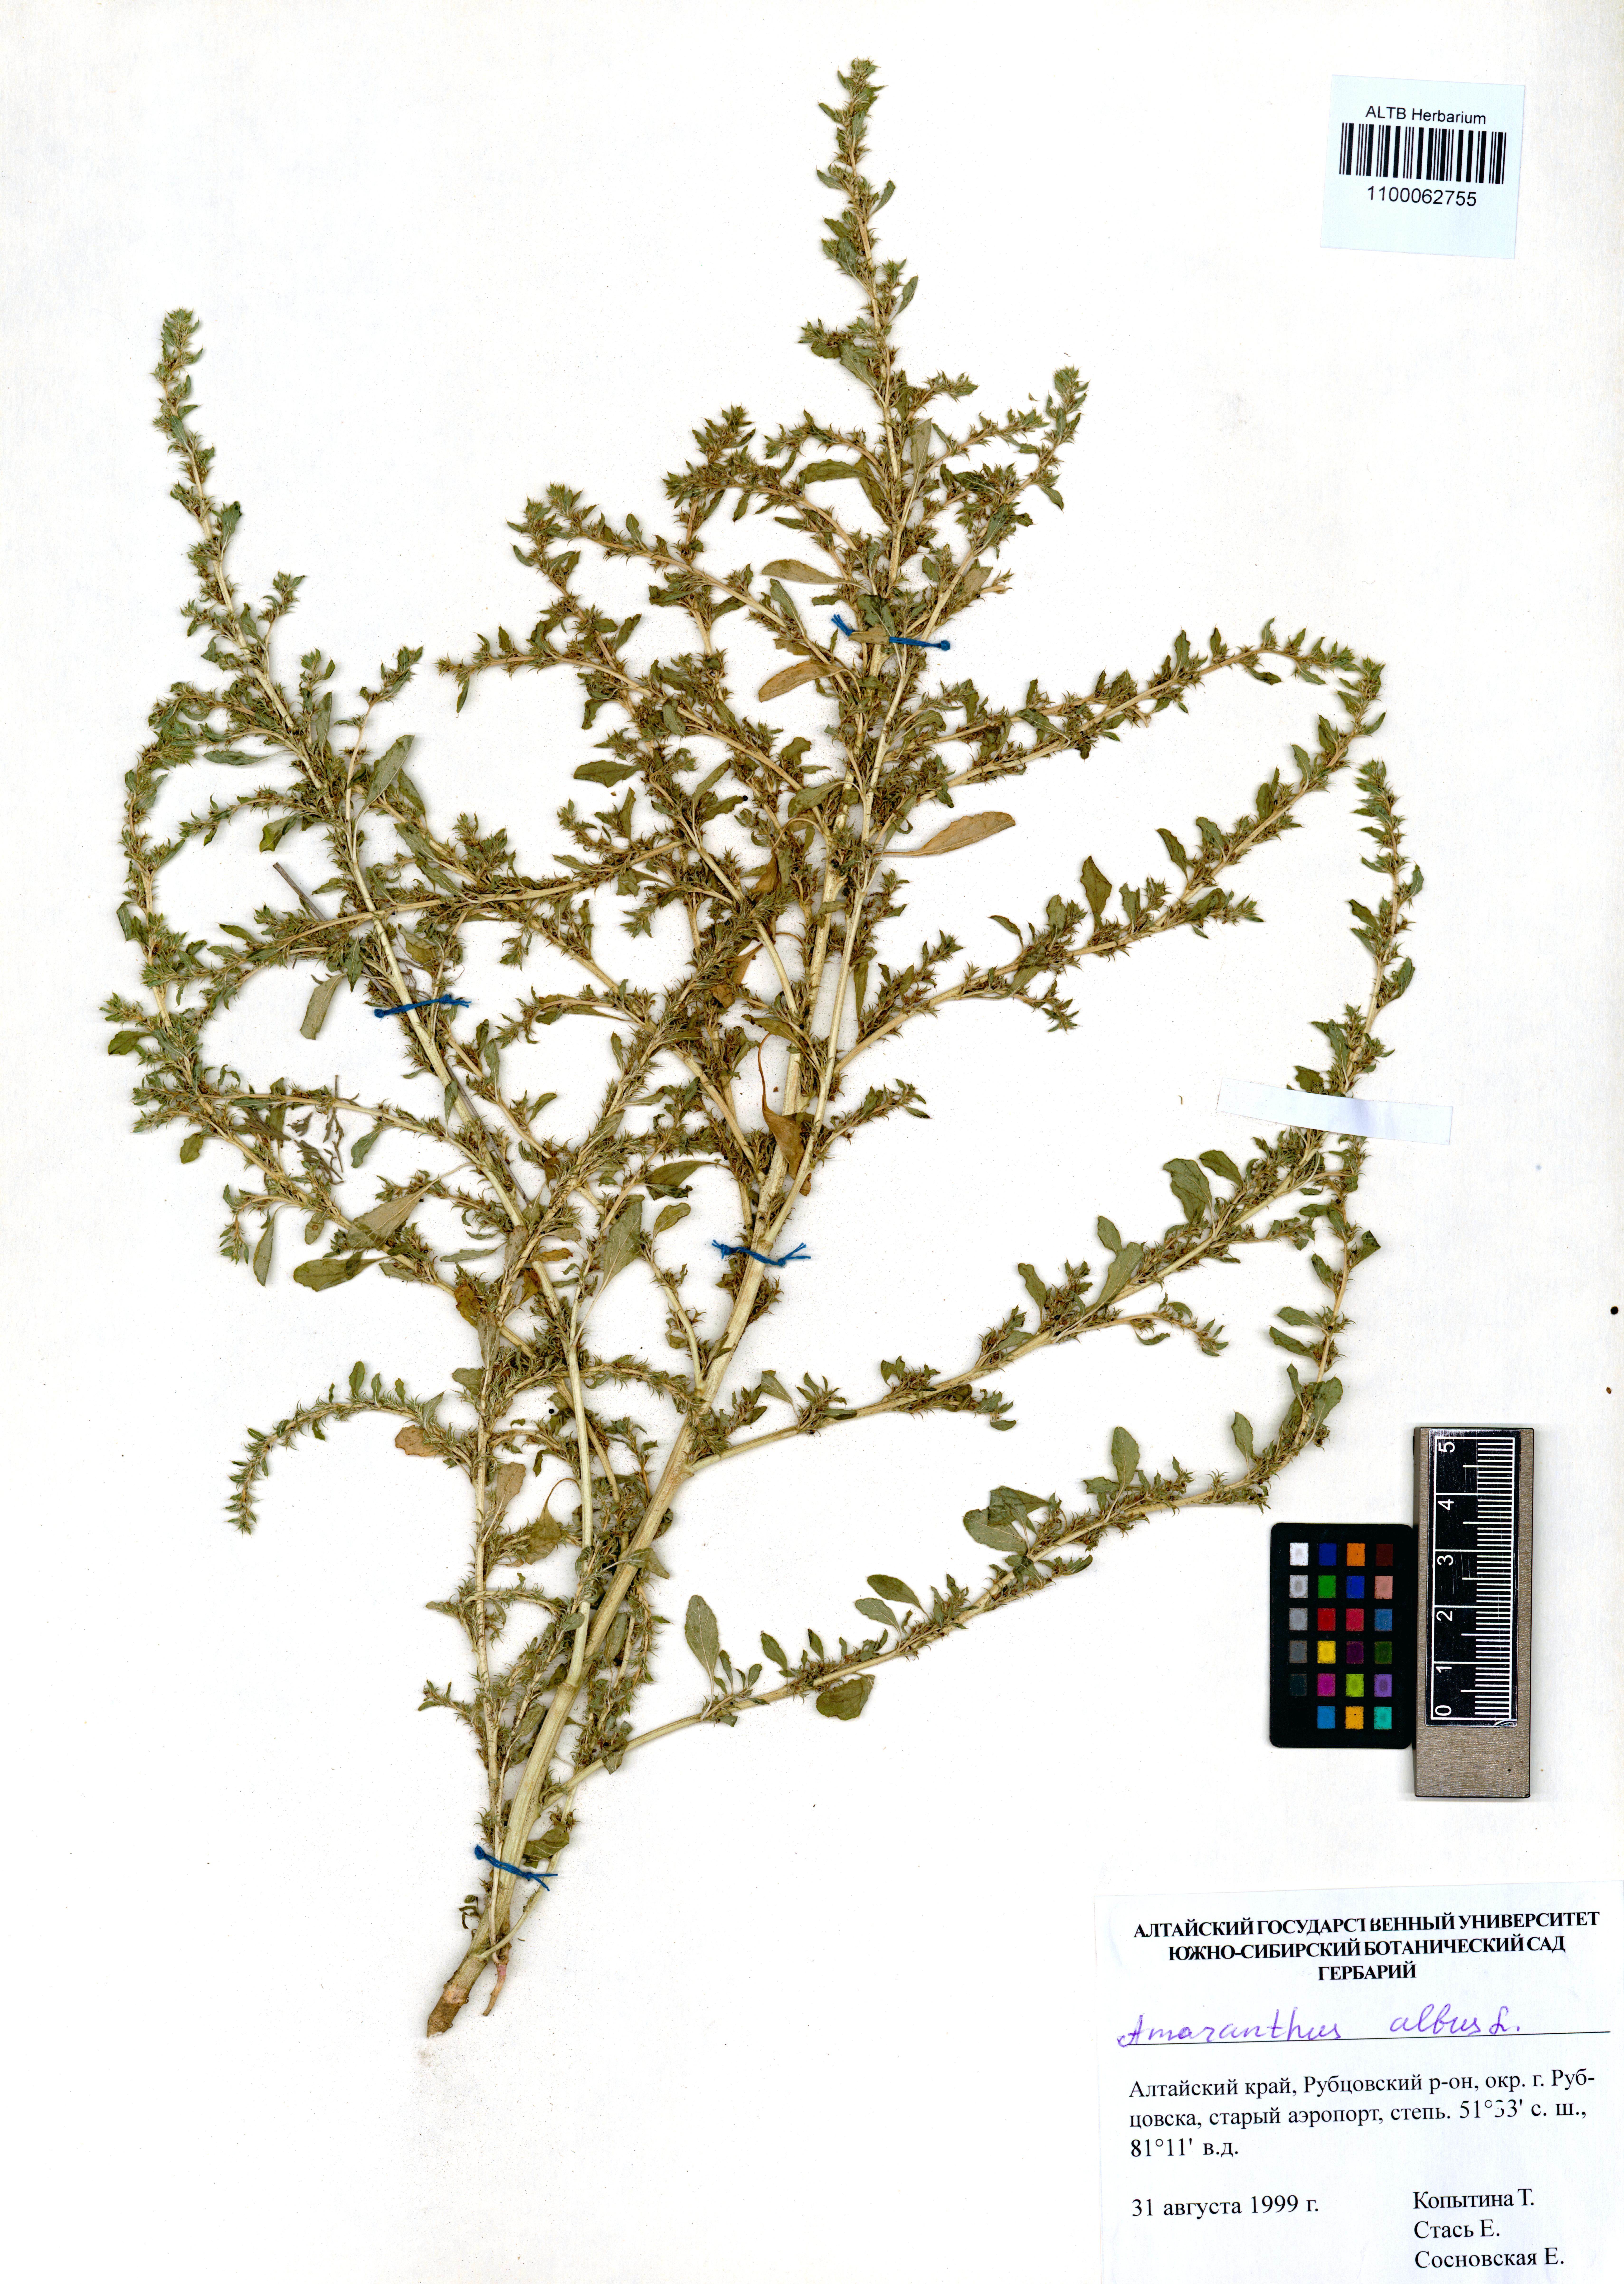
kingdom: Plantae
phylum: Tracheophyta
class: Magnoliopsida
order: Caryophyllales
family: Amaranthaceae
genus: Amaranthus
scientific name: Amaranthus albus
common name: White pigweed
